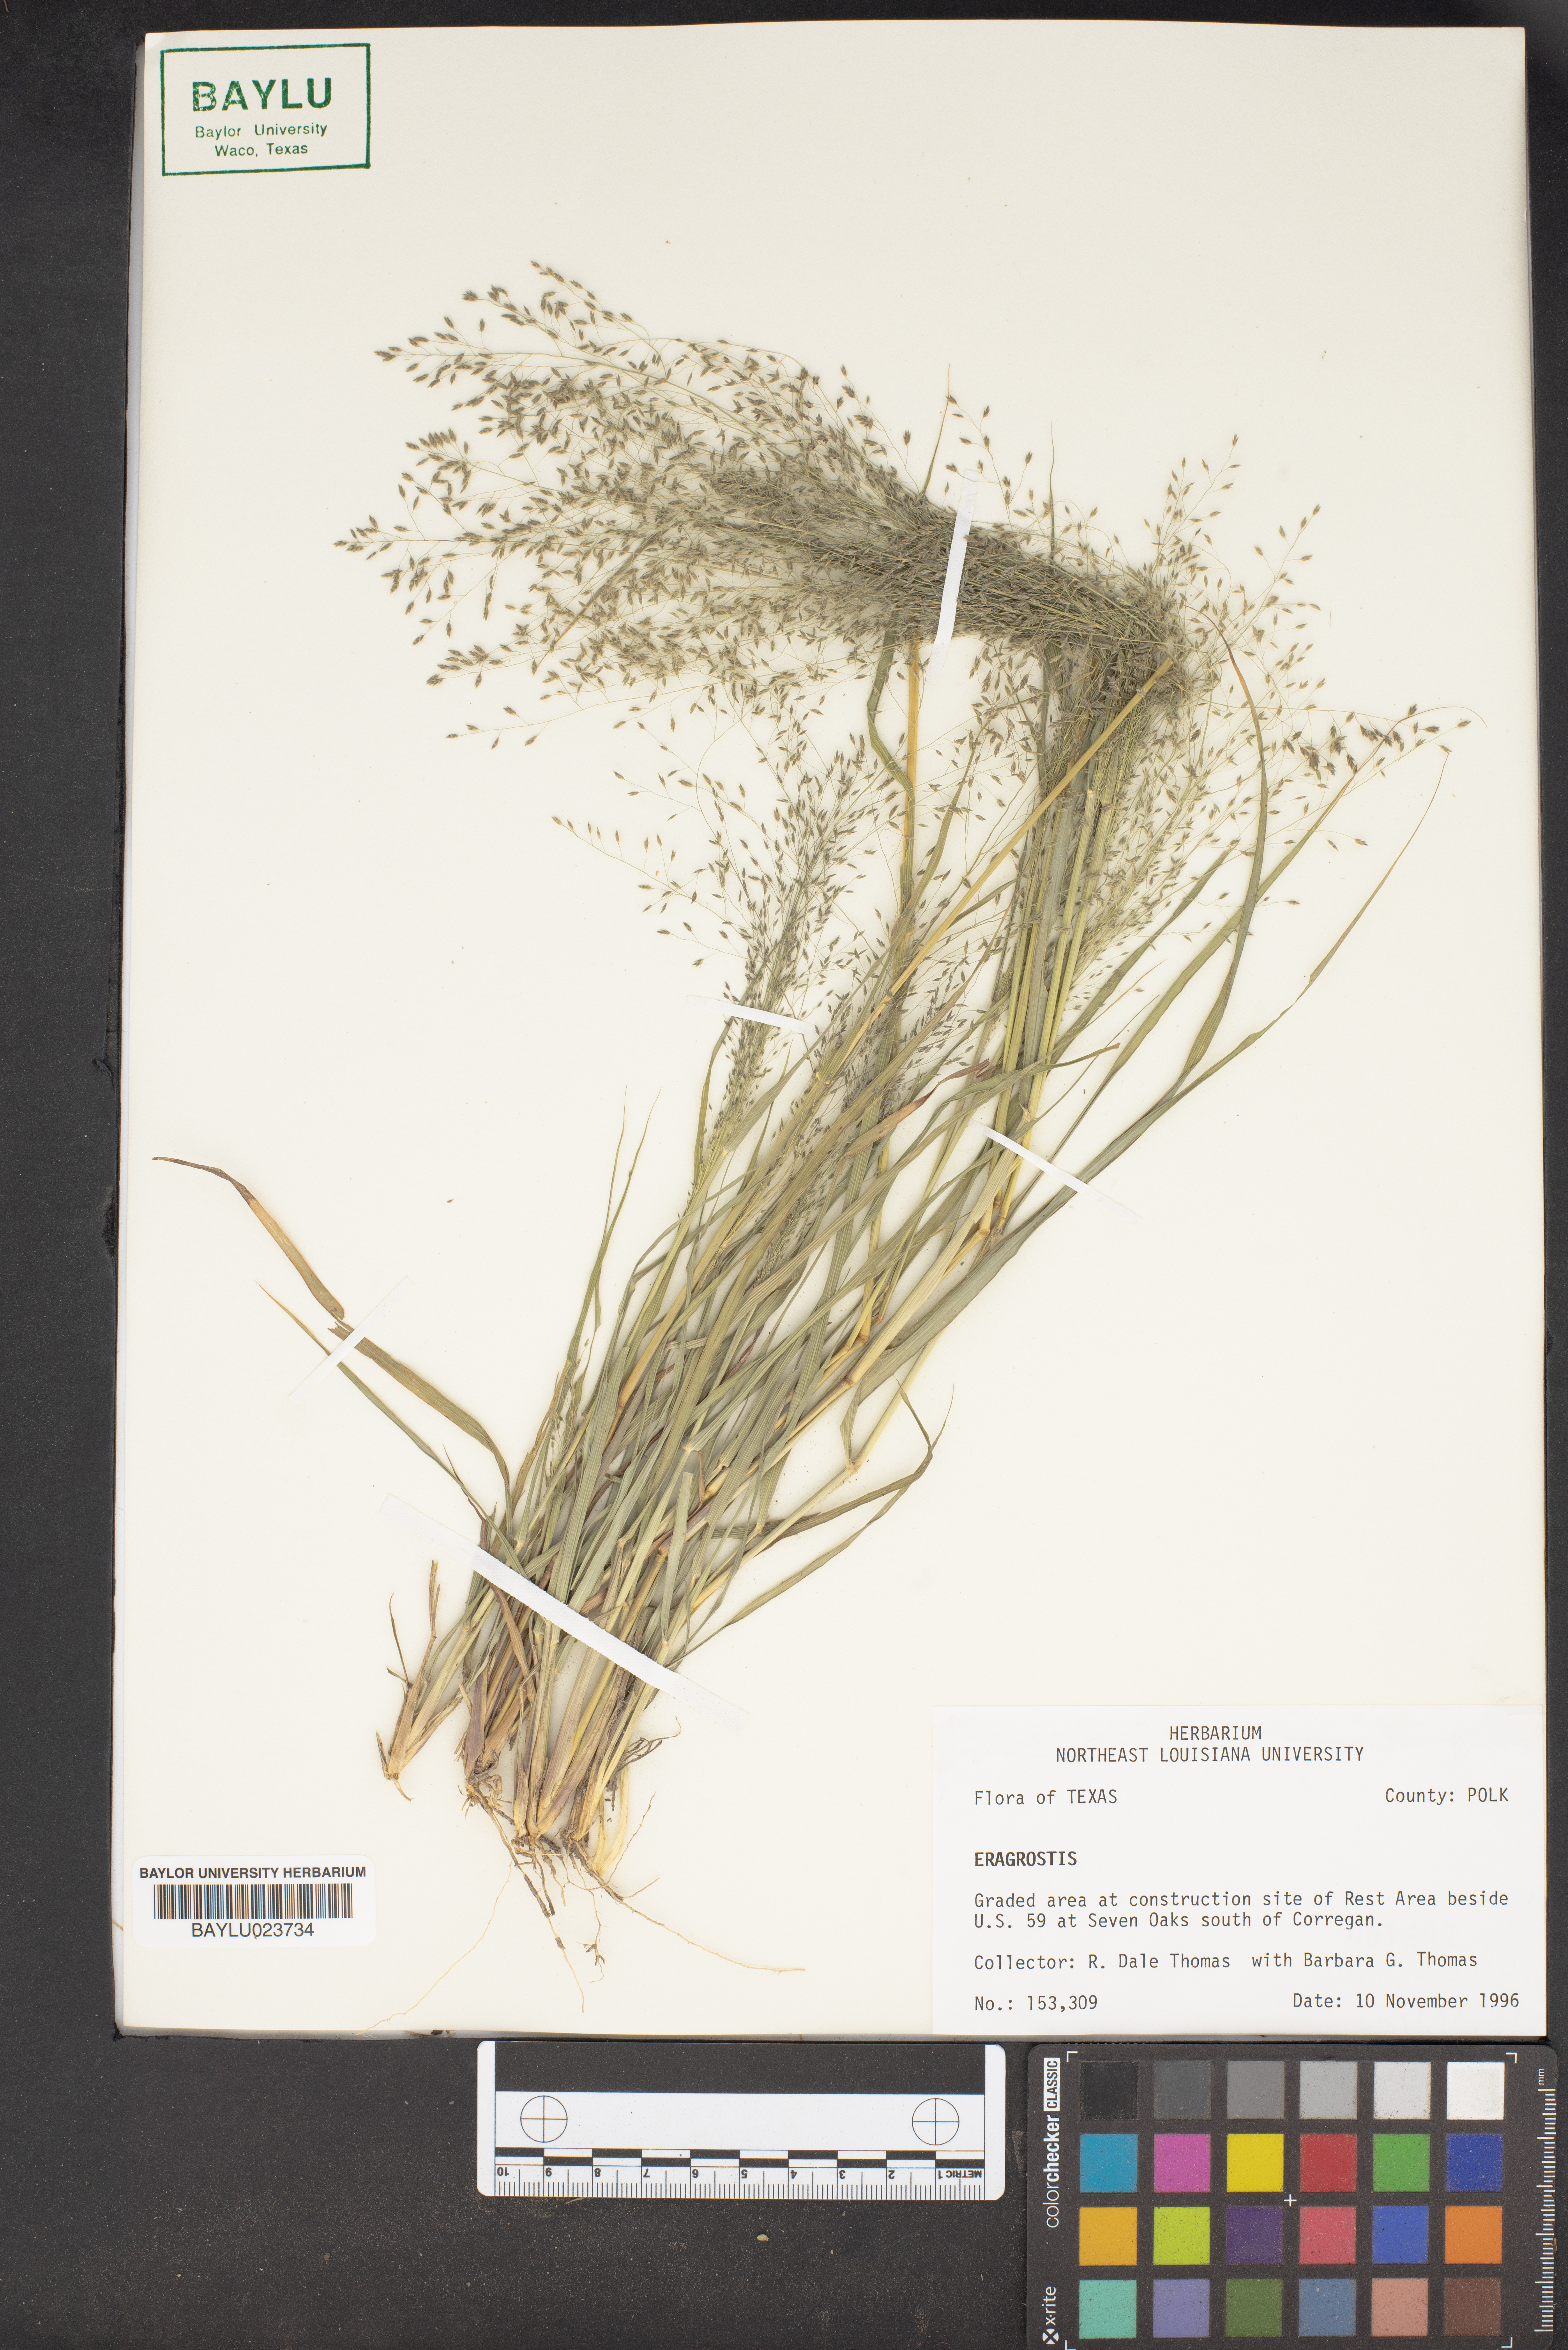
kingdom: Plantae
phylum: Tracheophyta
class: Liliopsida
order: Poales
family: Poaceae
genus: Eragrostis
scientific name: Eragrostis
